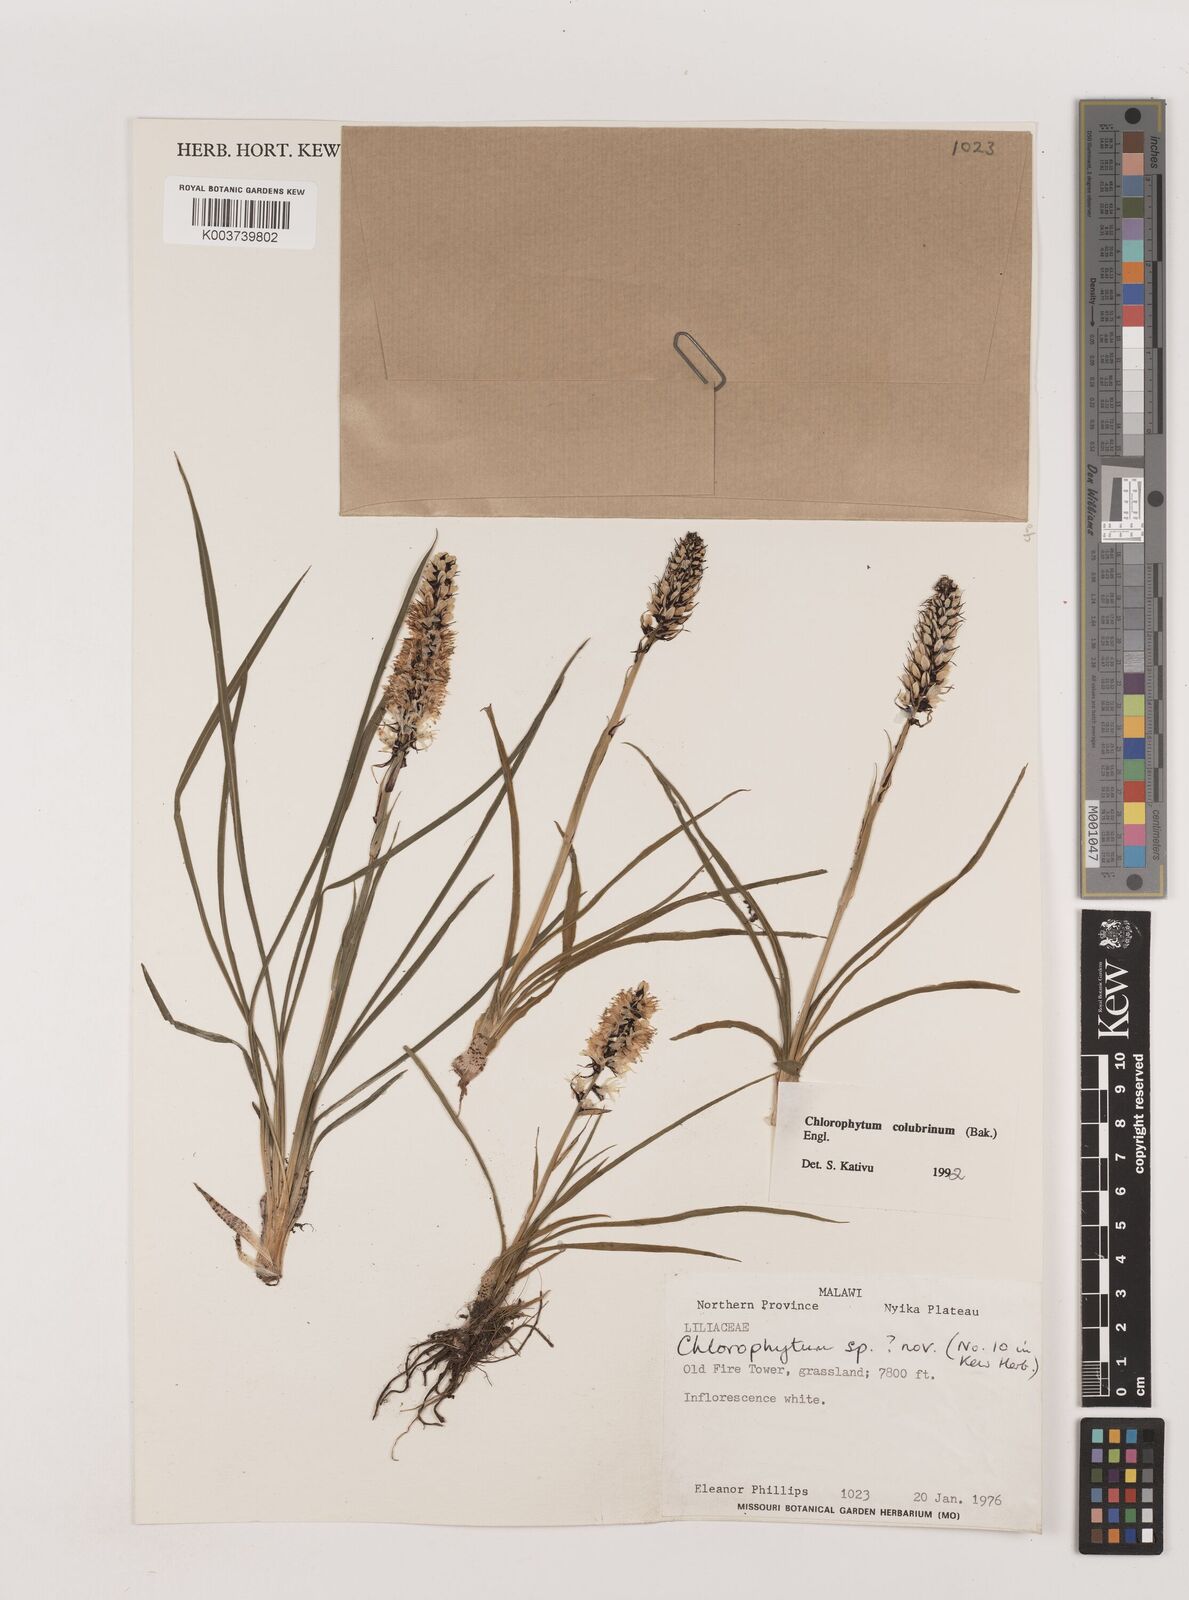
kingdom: Plantae
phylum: Tracheophyta
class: Liliopsida
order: Asparagales
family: Asparagaceae
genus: Chlorophytum
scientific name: Chlorophytum colubrinum
